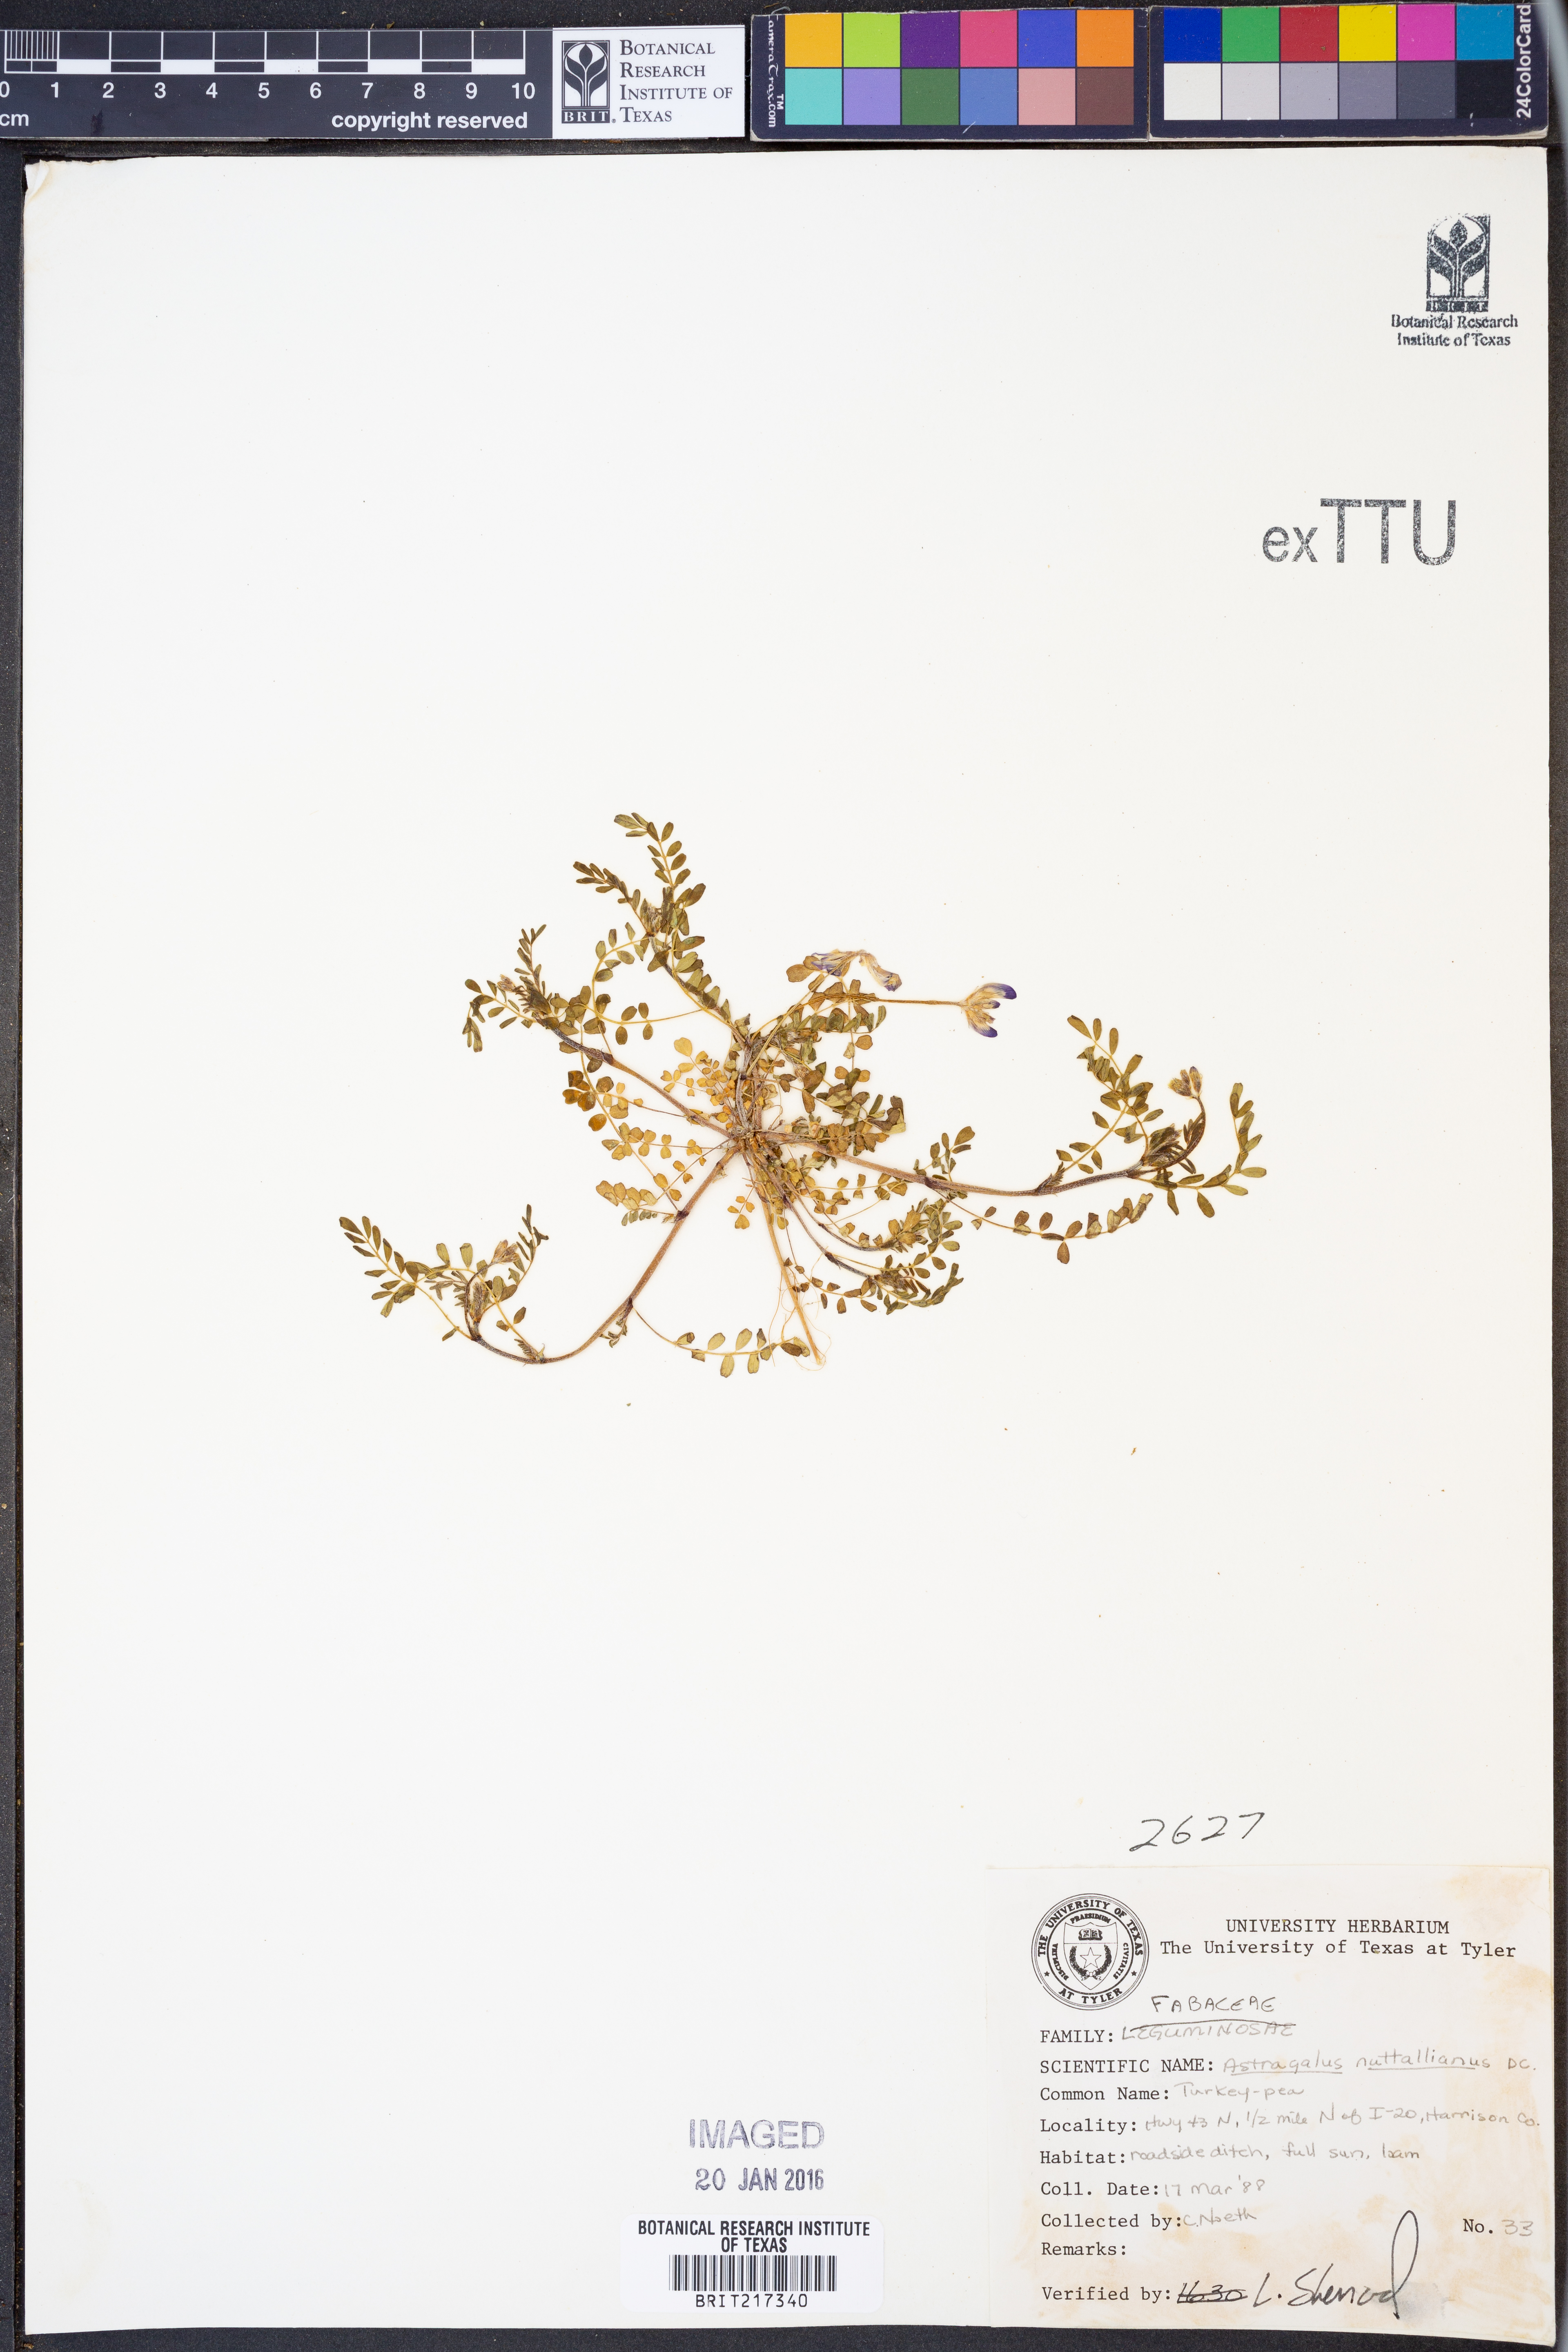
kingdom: Plantae
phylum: Tracheophyta
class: Magnoliopsida
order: Fabales
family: Fabaceae
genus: Astragalus
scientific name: Astragalus nuttallianus
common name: Smallflowered milkvetch
